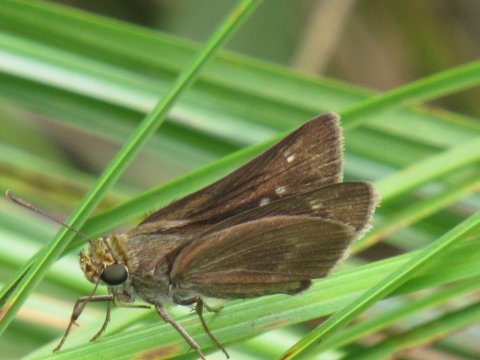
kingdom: Animalia
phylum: Arthropoda
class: Insecta
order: Lepidoptera
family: Hesperiidae
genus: Euphyes
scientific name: Euphyes
